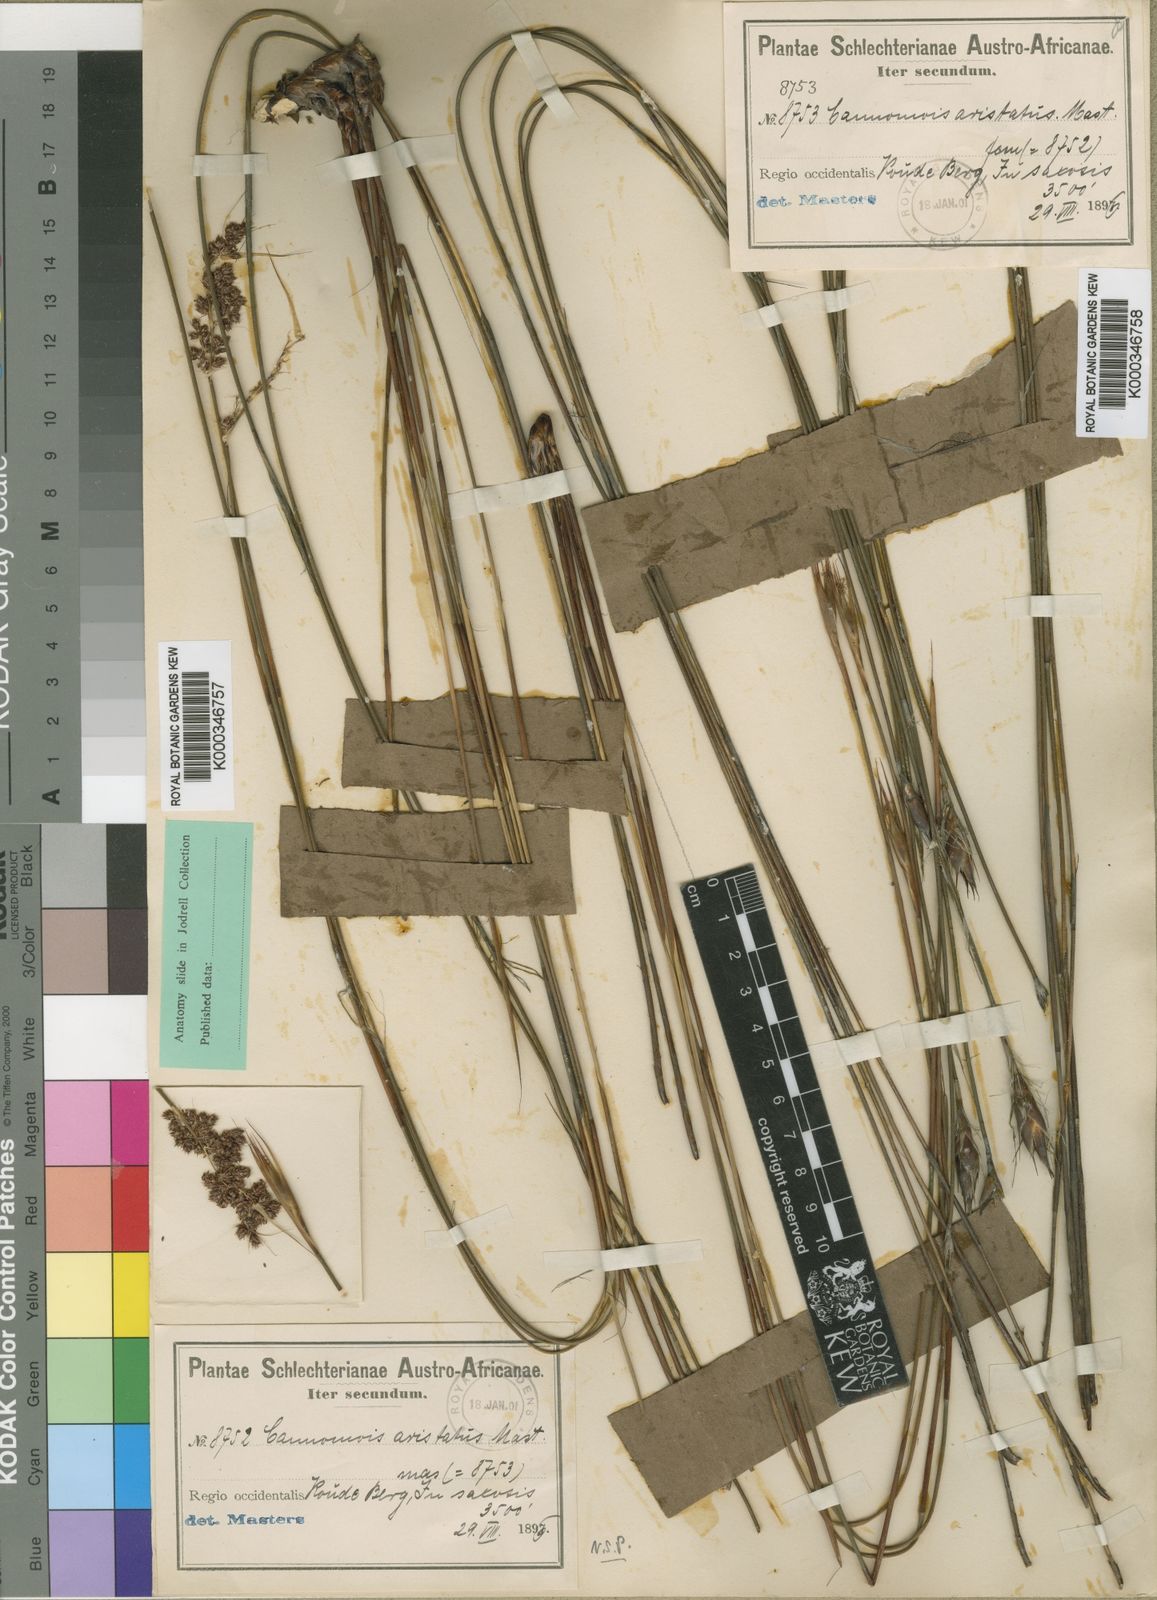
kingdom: Plantae
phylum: Tracheophyta
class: Liliopsida
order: Poales
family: Restionaceae
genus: Cannomois
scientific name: Cannomois aristata
